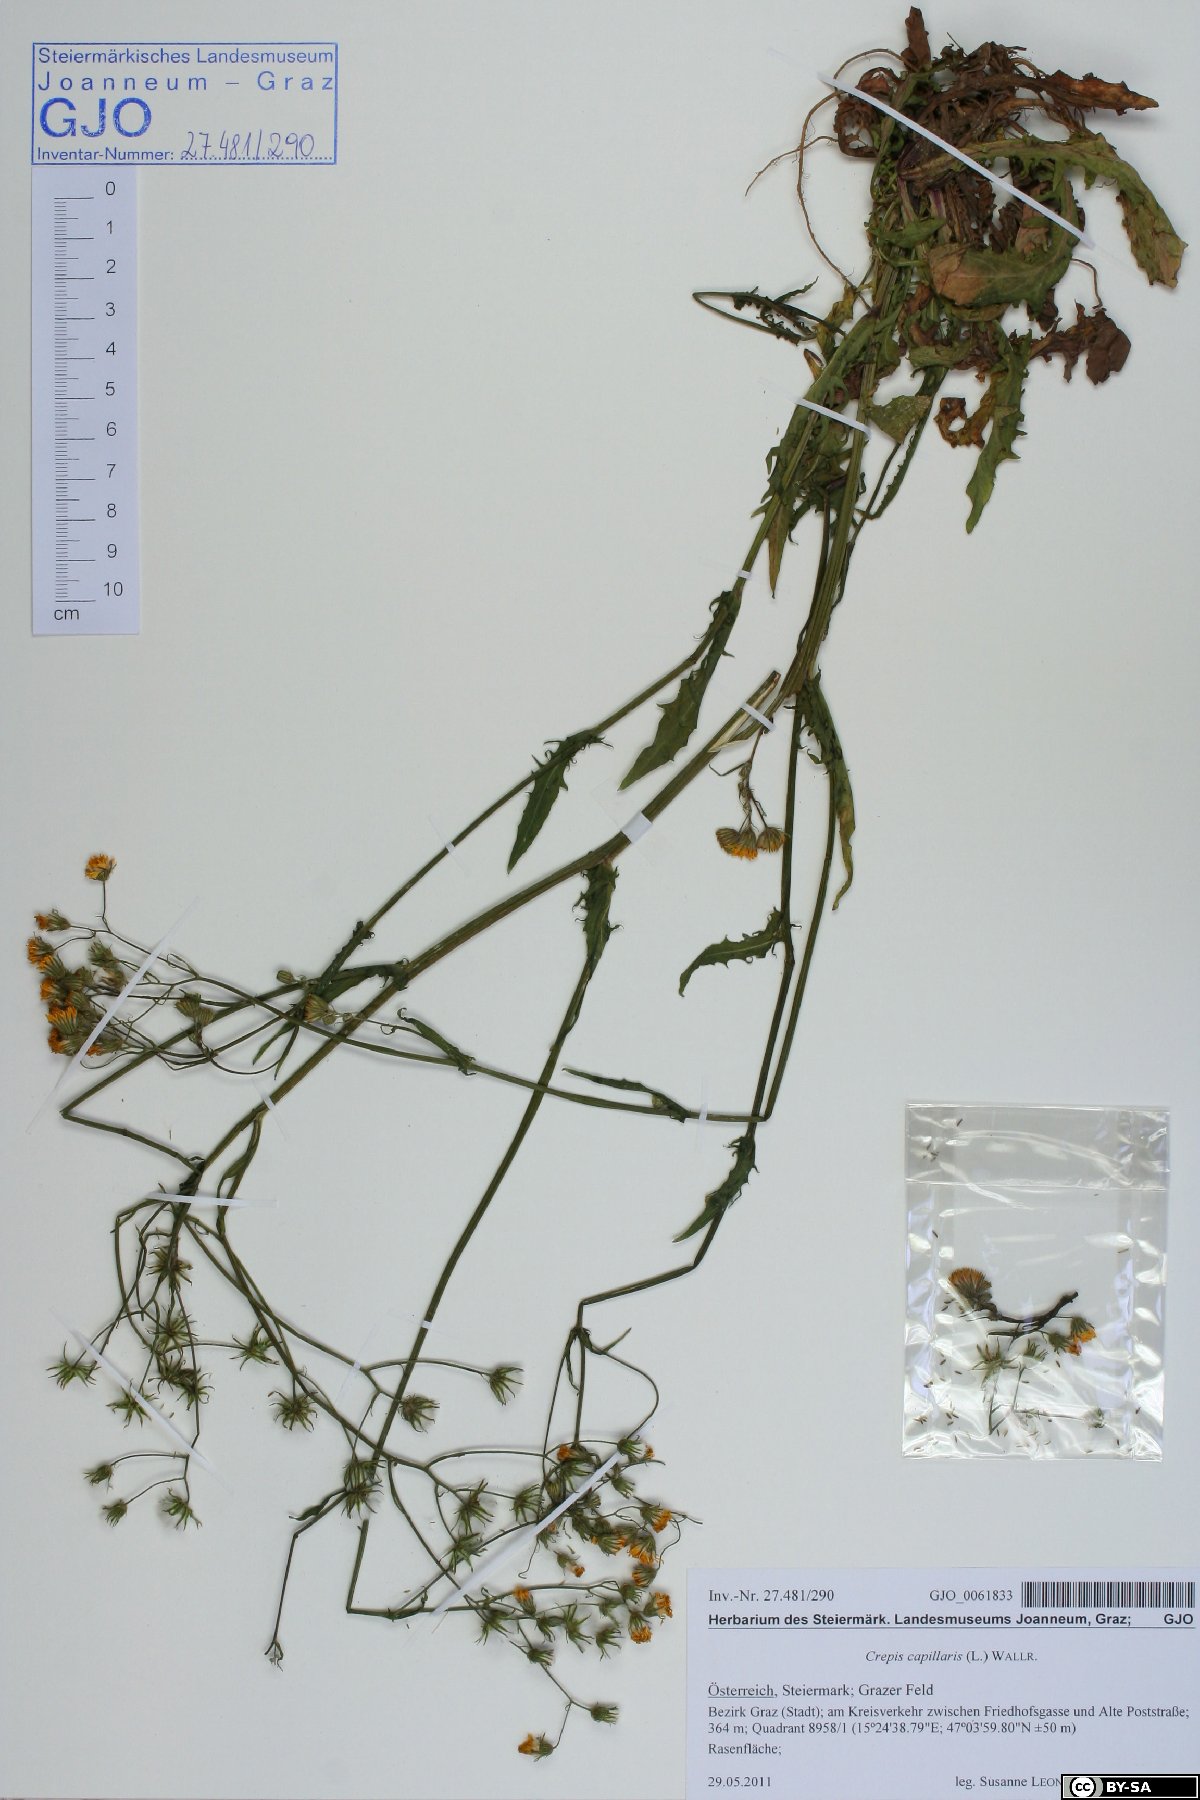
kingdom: Plantae
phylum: Tracheophyta
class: Magnoliopsida
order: Asterales
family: Asteraceae
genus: Crepis
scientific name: Crepis capillaris
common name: Smooth hawksbeard
